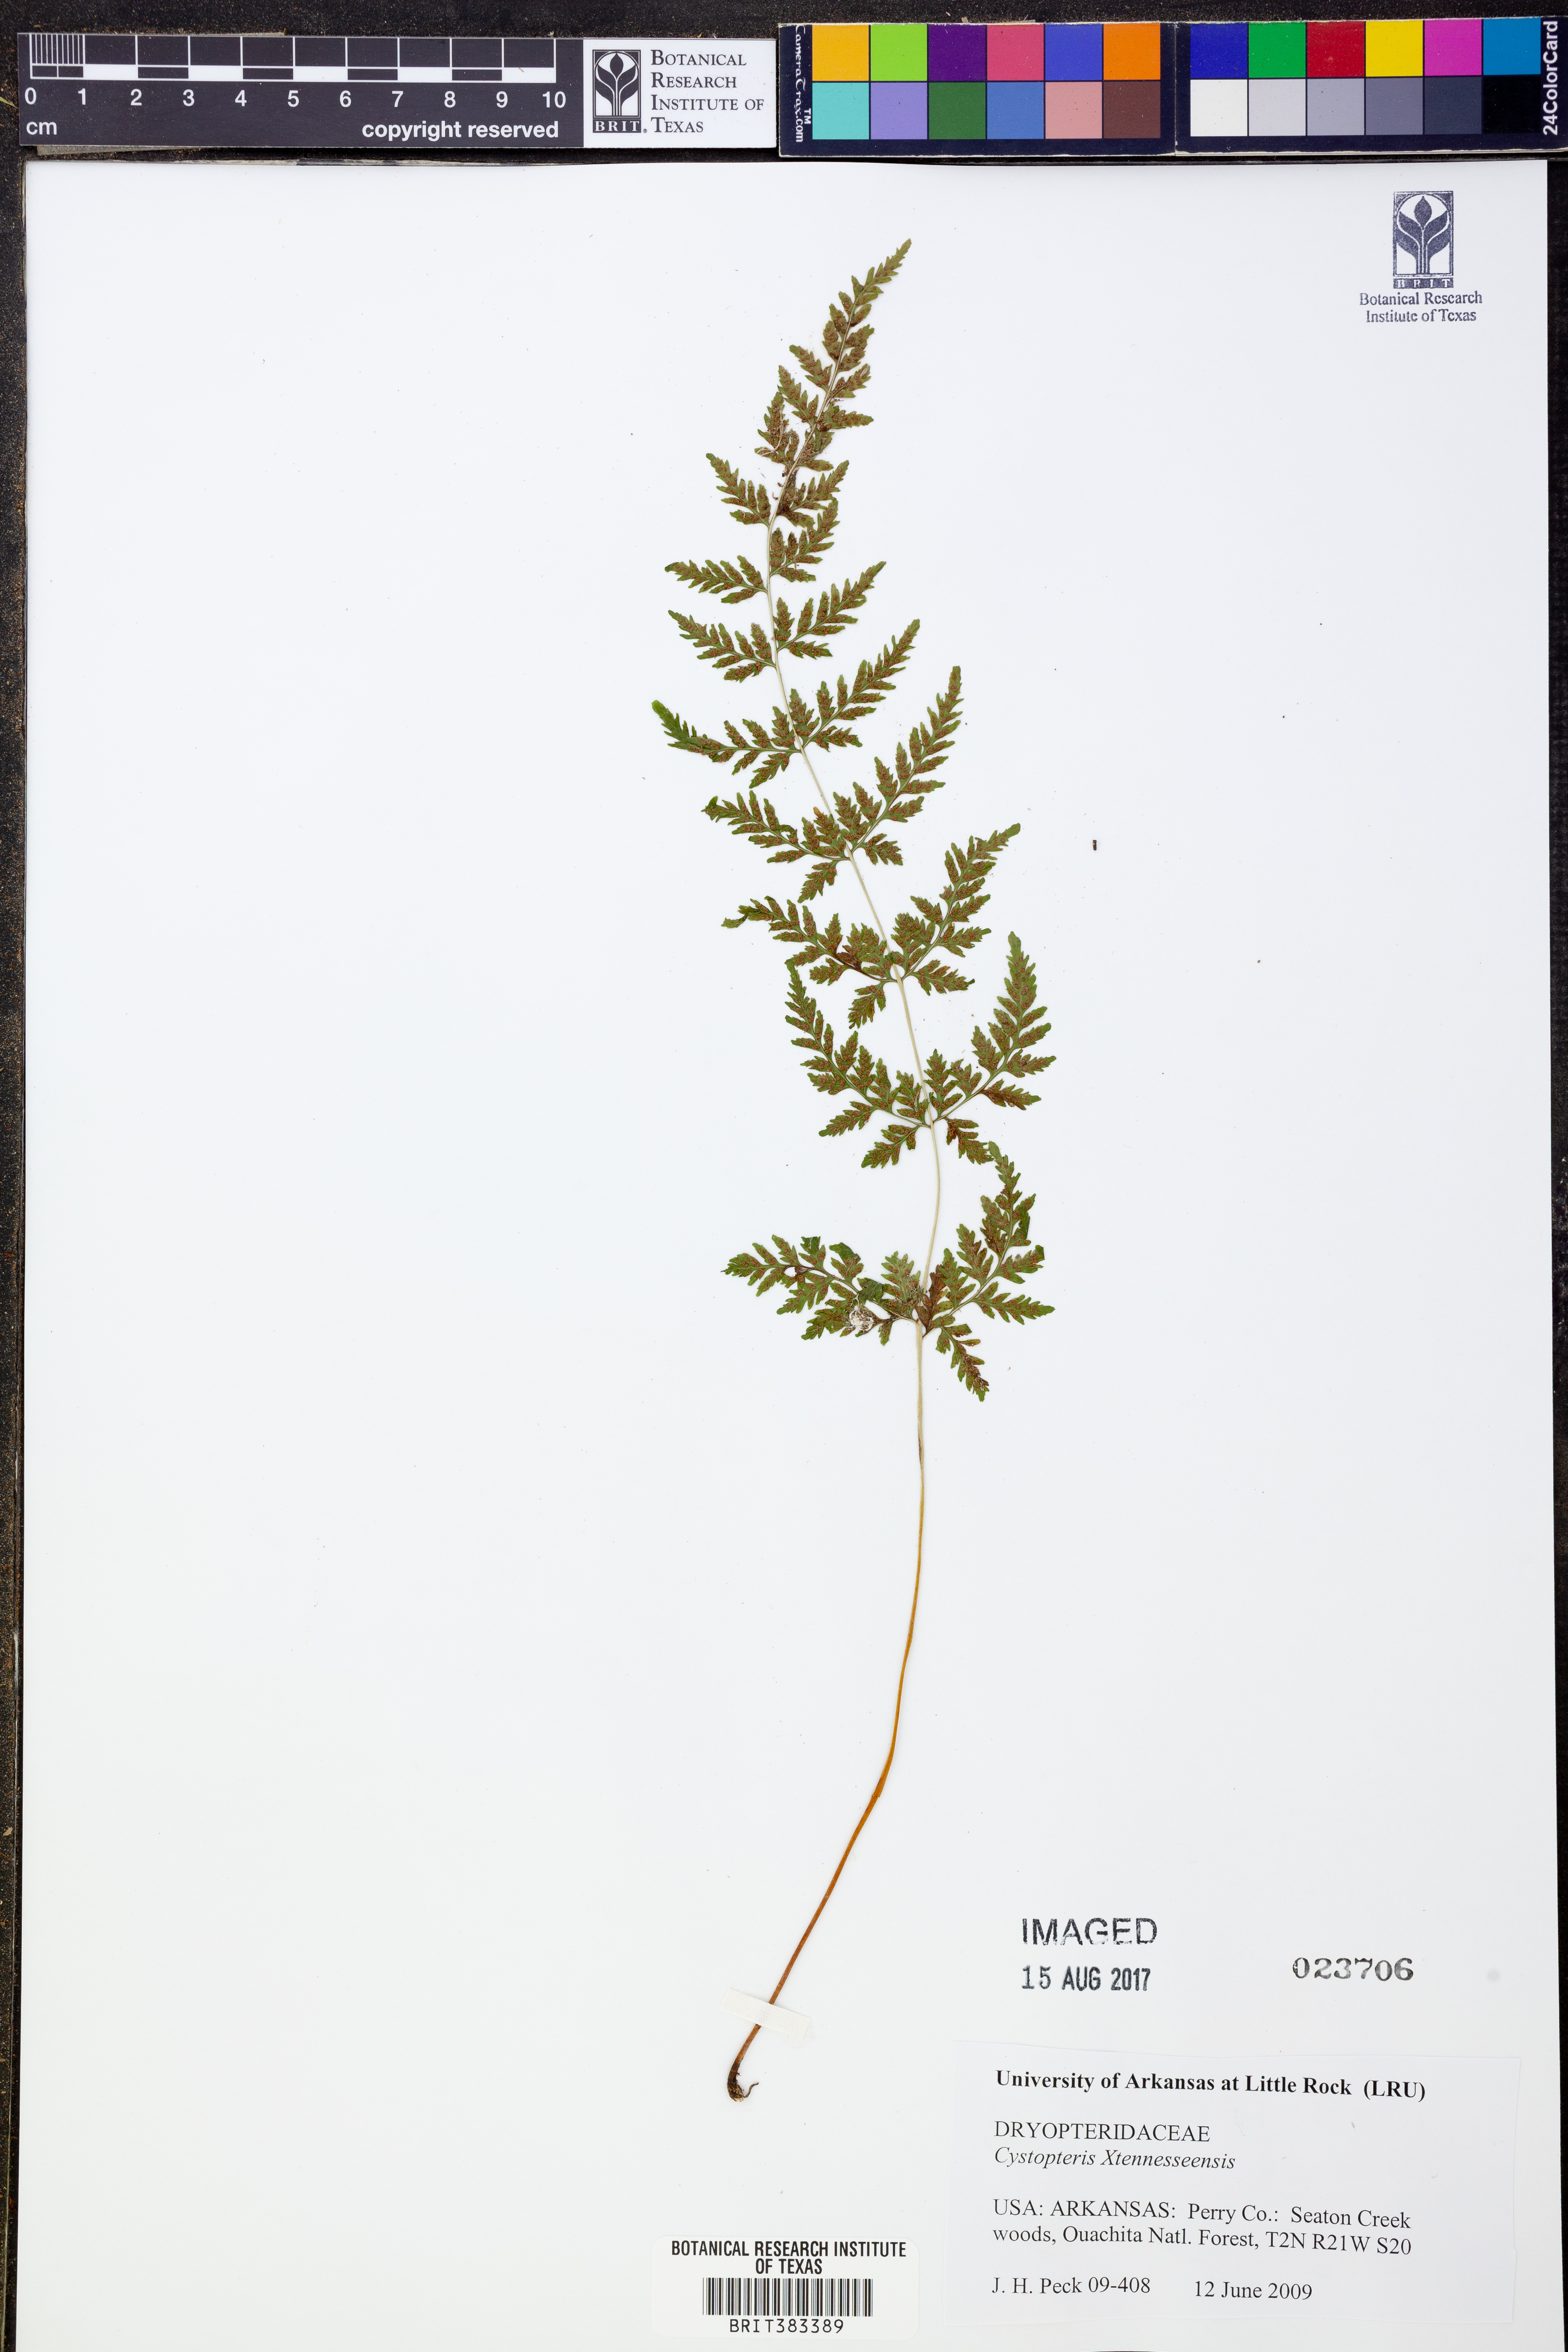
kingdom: Plantae
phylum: Tracheophyta
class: Polypodiopsida
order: Polypodiales
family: Cystopteridaceae
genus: Cystopteris
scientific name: Cystopteris tennesseensis
